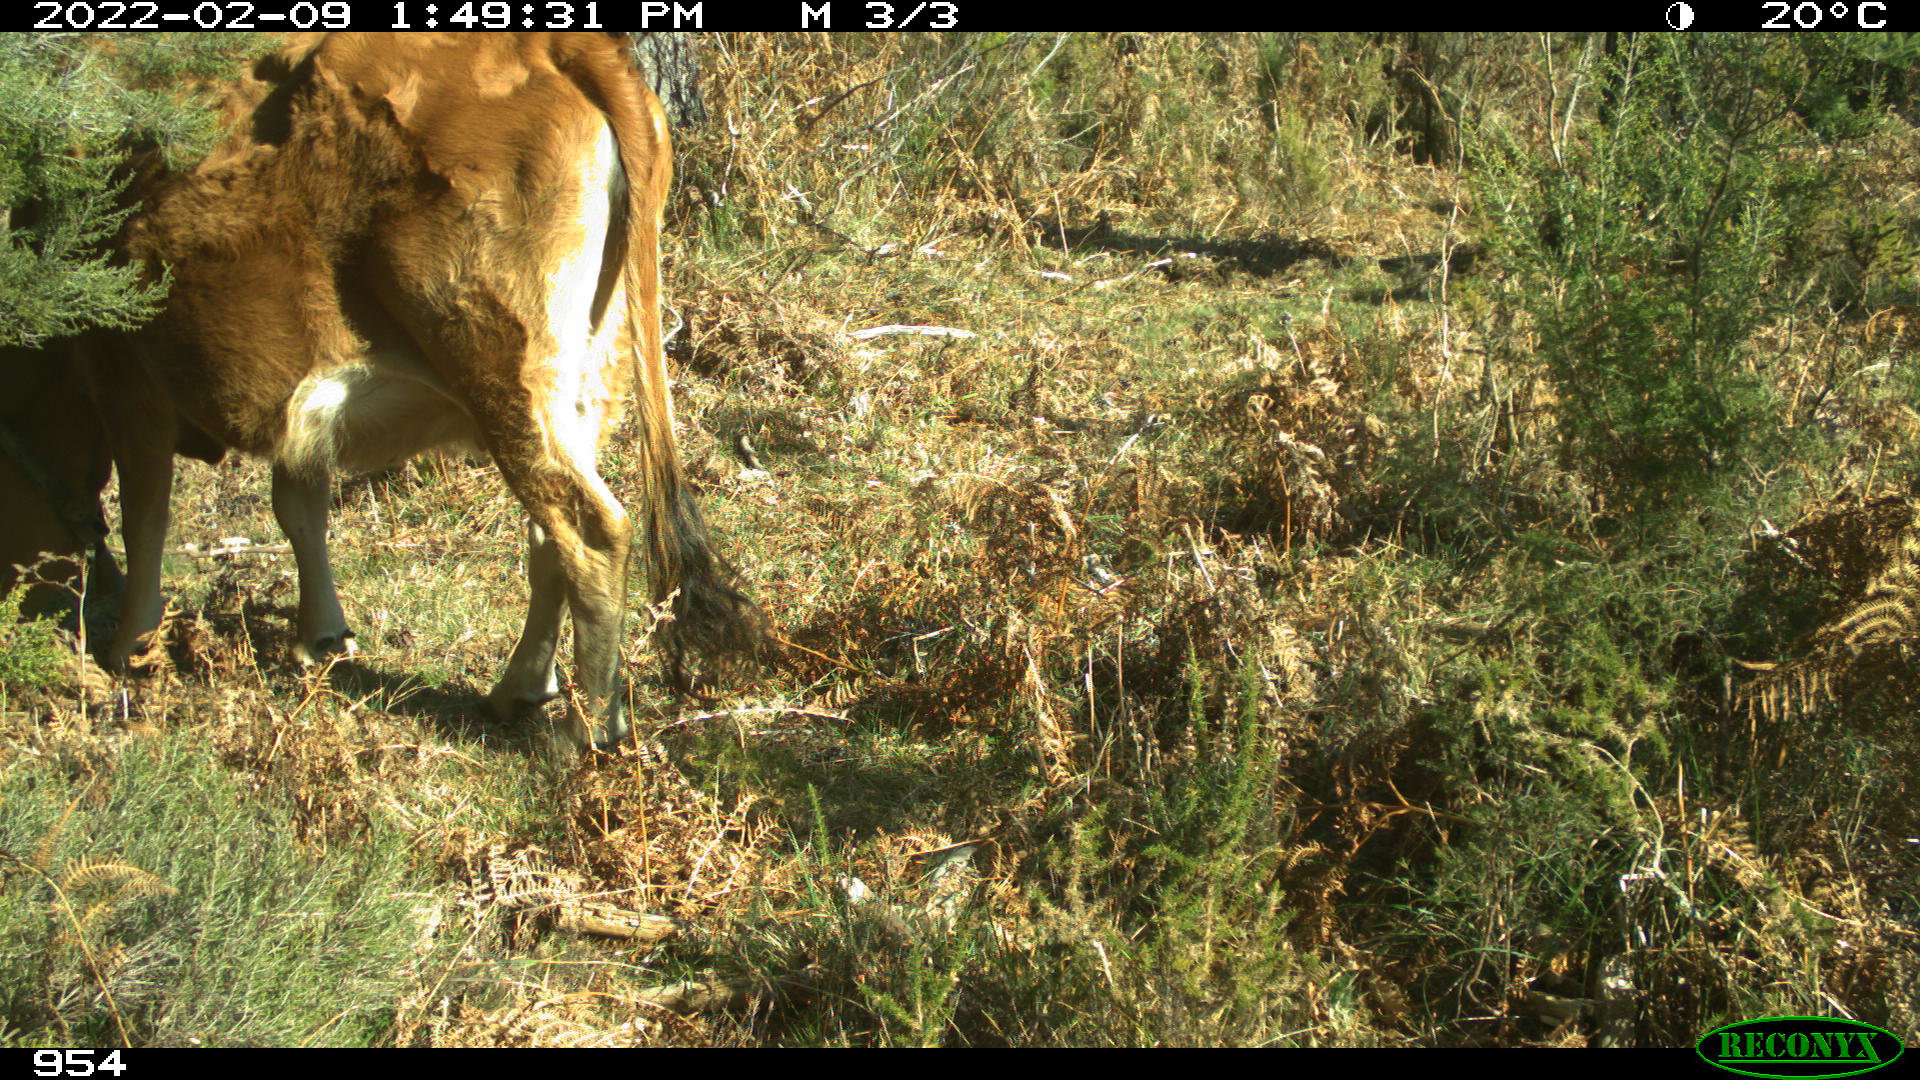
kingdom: Animalia
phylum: Chordata
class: Mammalia
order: Artiodactyla
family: Bovidae
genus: Bos
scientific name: Bos taurus
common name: Domesticated cattle
